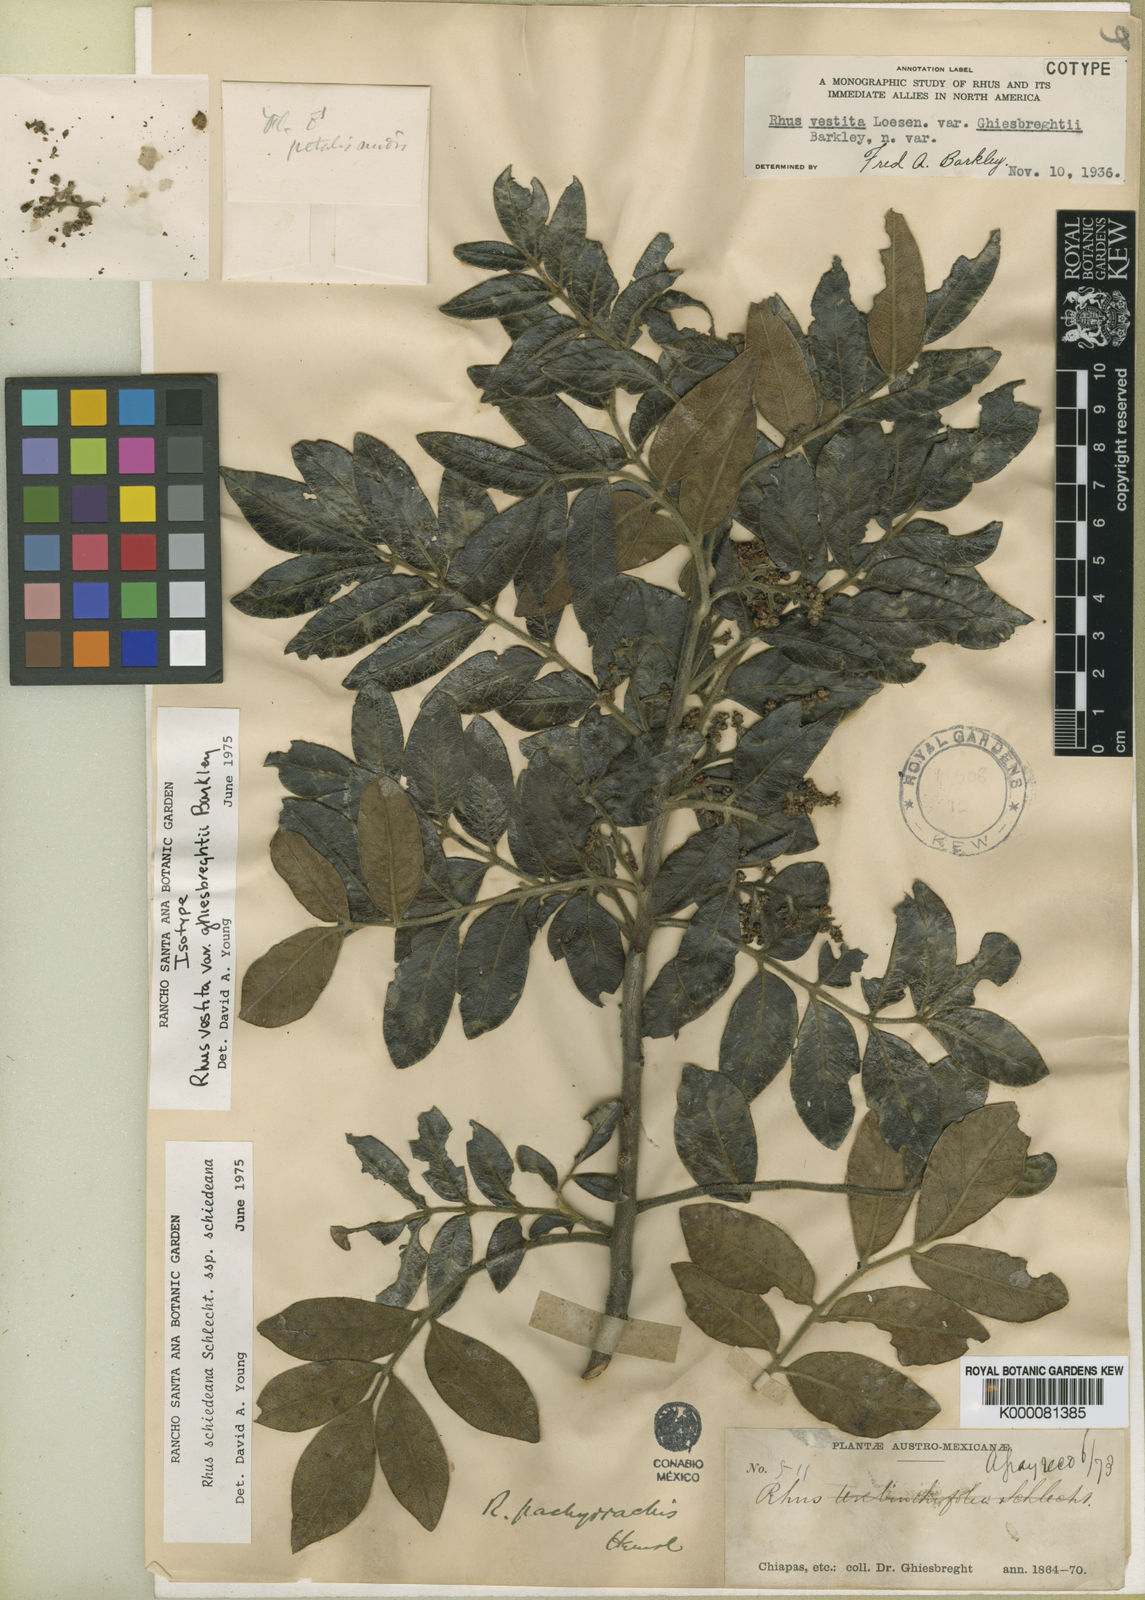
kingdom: Plantae
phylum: Tracheophyta
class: Magnoliopsida
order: Sapindales
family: Anacardiaceae
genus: Rhus
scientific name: Rhus vestita
